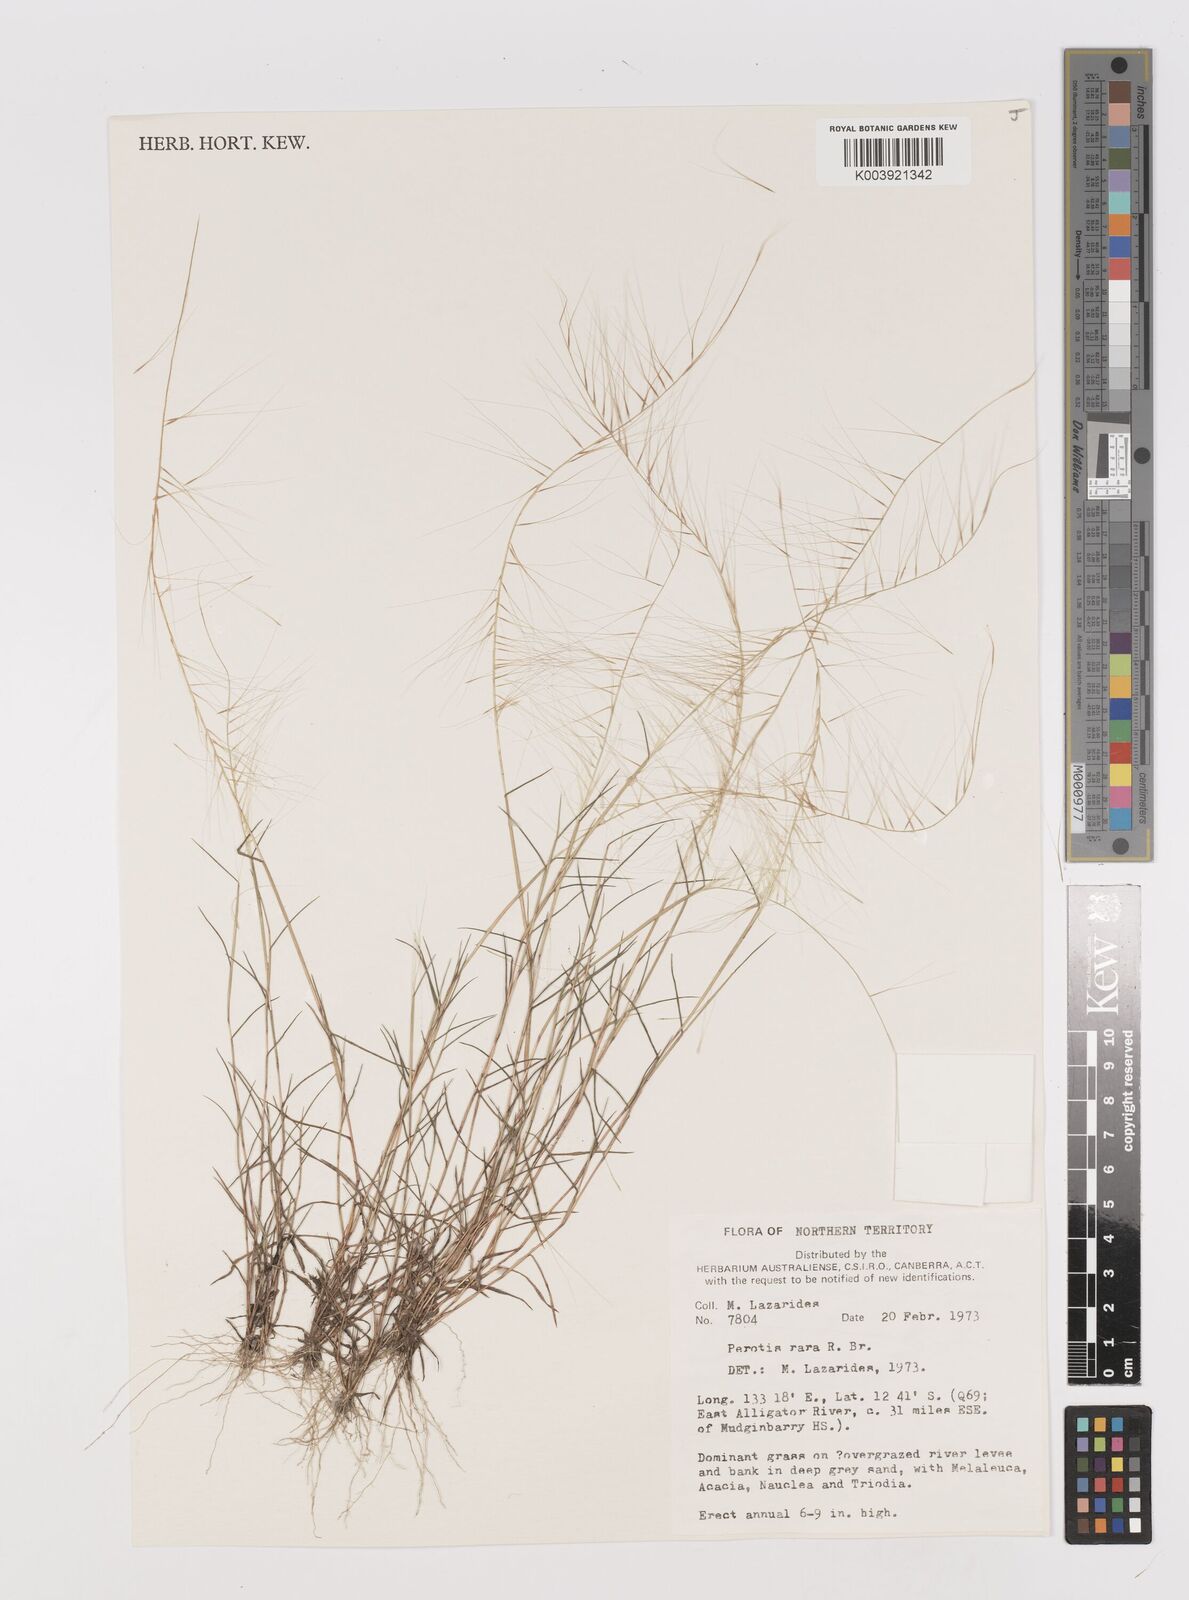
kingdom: Plantae
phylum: Tracheophyta
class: Liliopsida
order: Poales
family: Poaceae
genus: Perotis
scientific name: Perotis rara
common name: Comet grass
